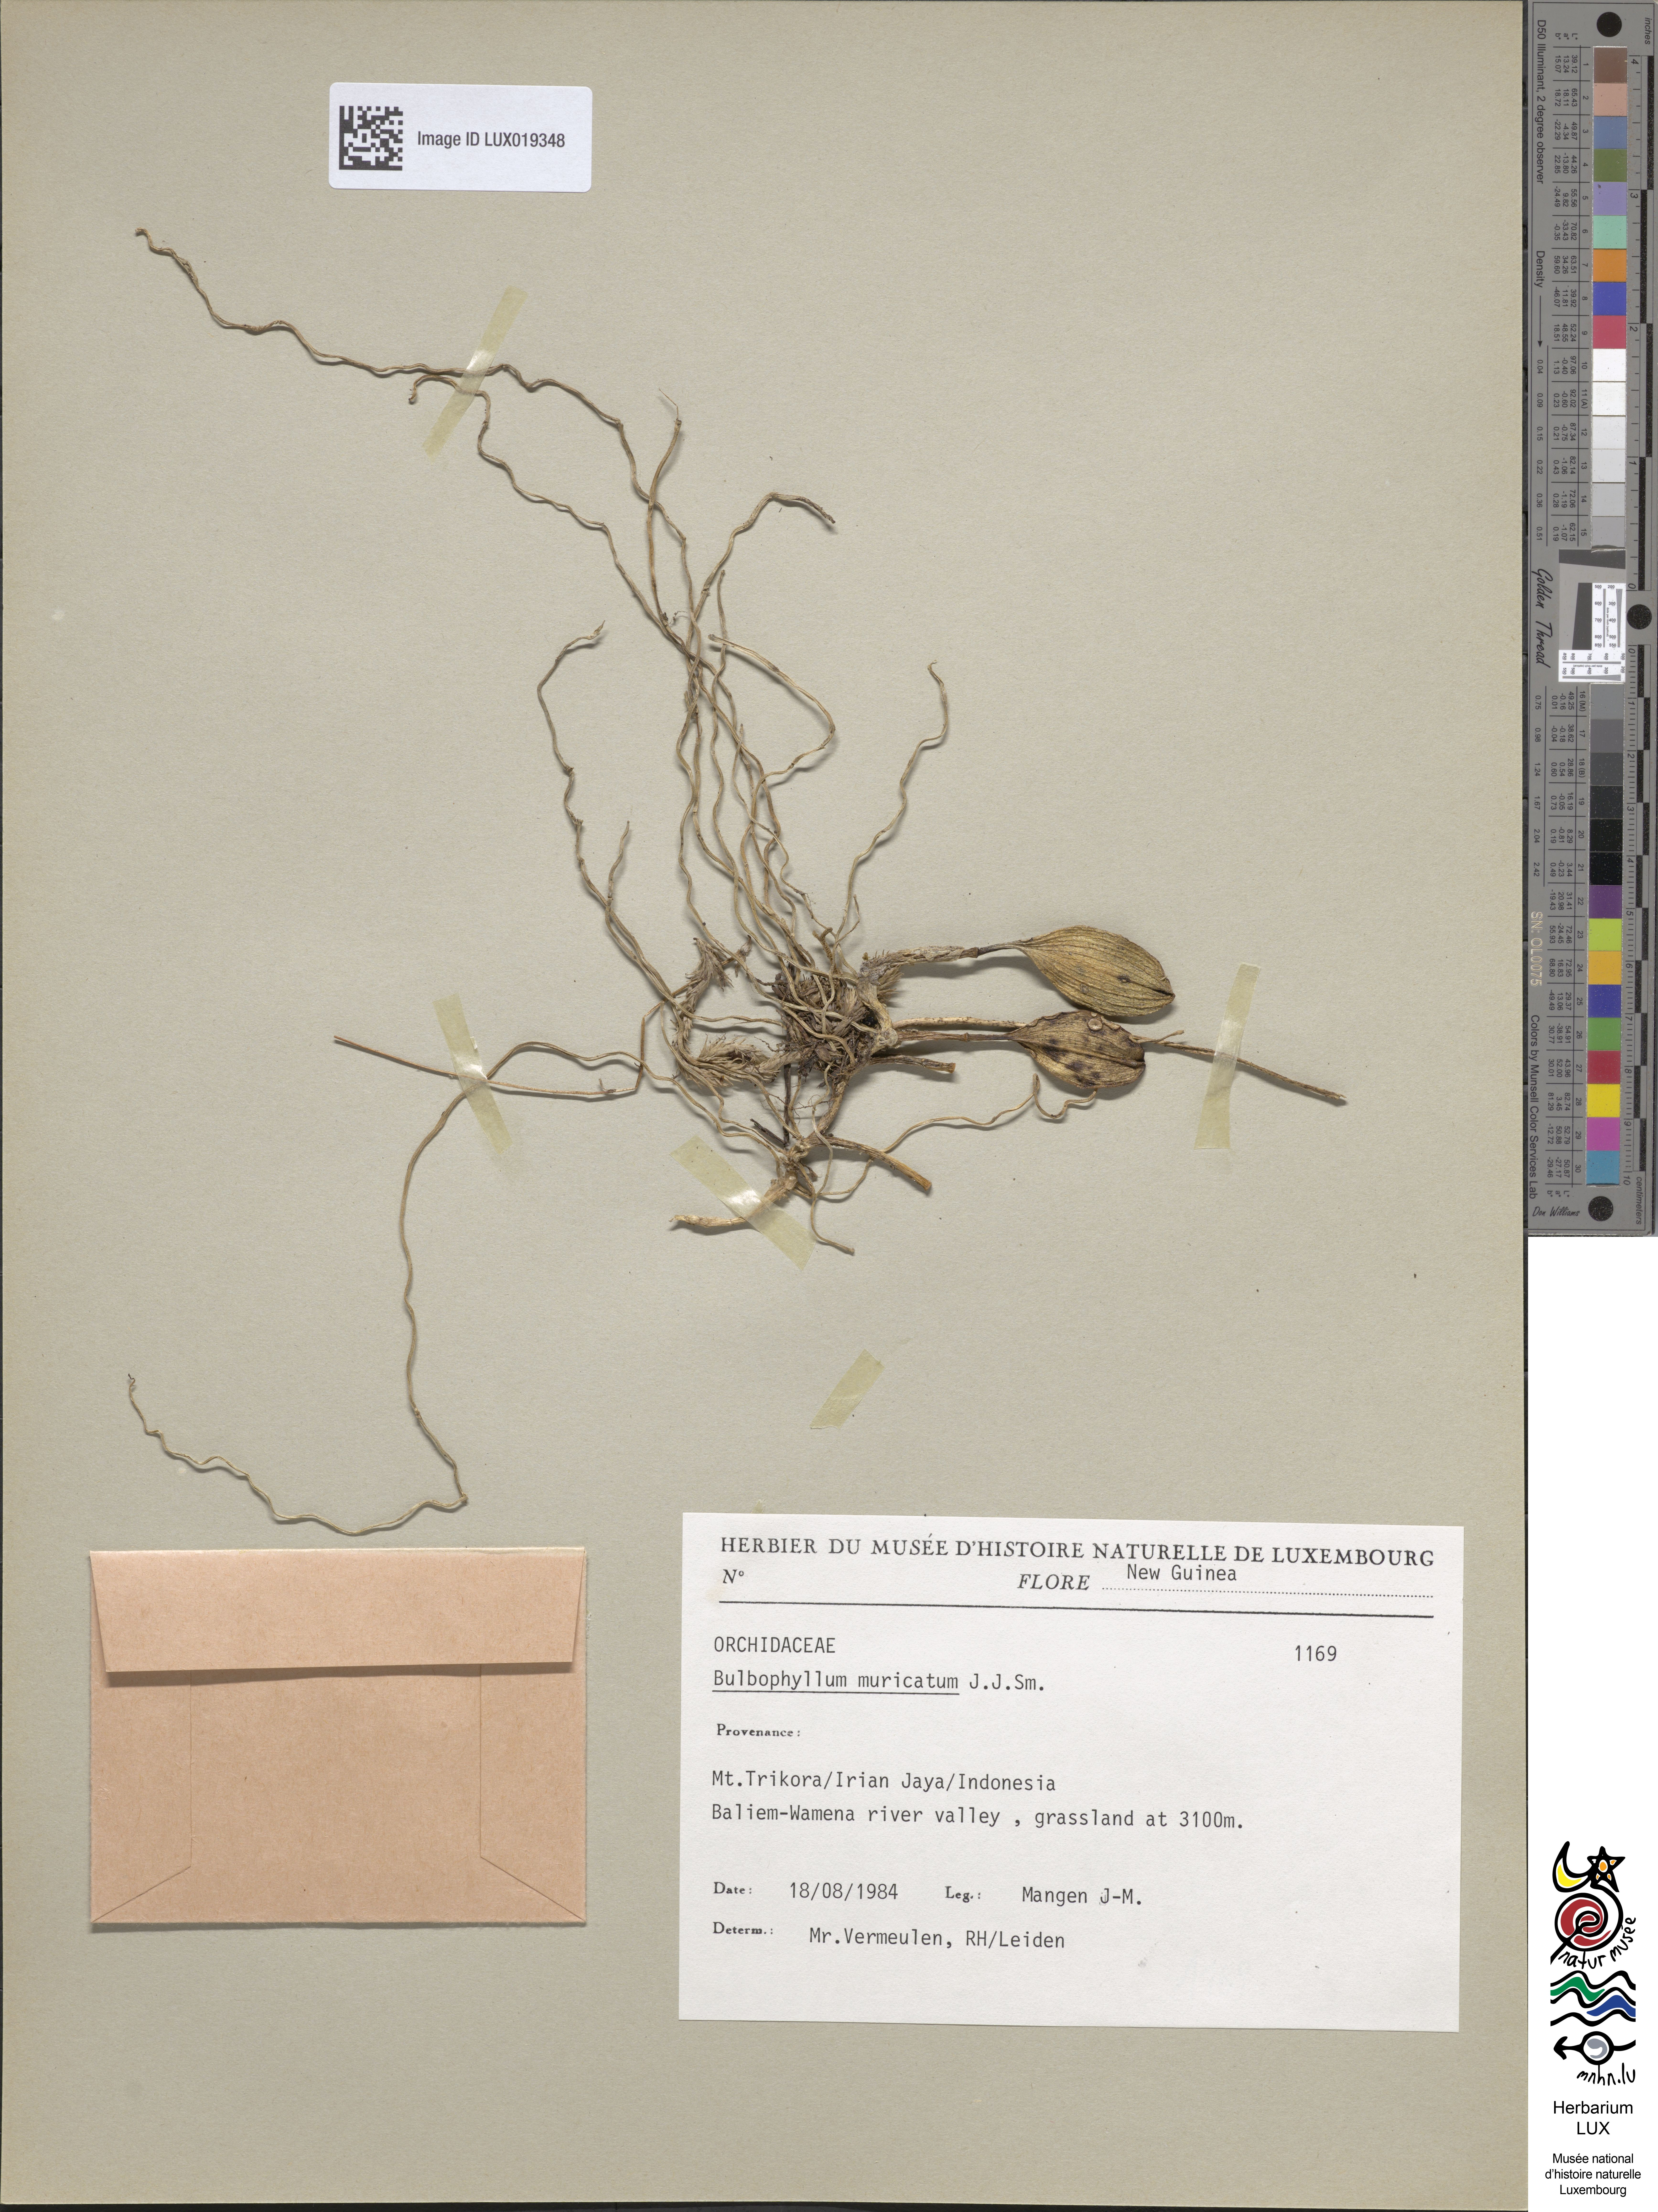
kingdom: Plantae
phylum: Tracheophyta
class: Liliopsida
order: Asparagales
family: Orchidaceae
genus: Bulbophyllum
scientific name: Bulbophyllum muricatum
